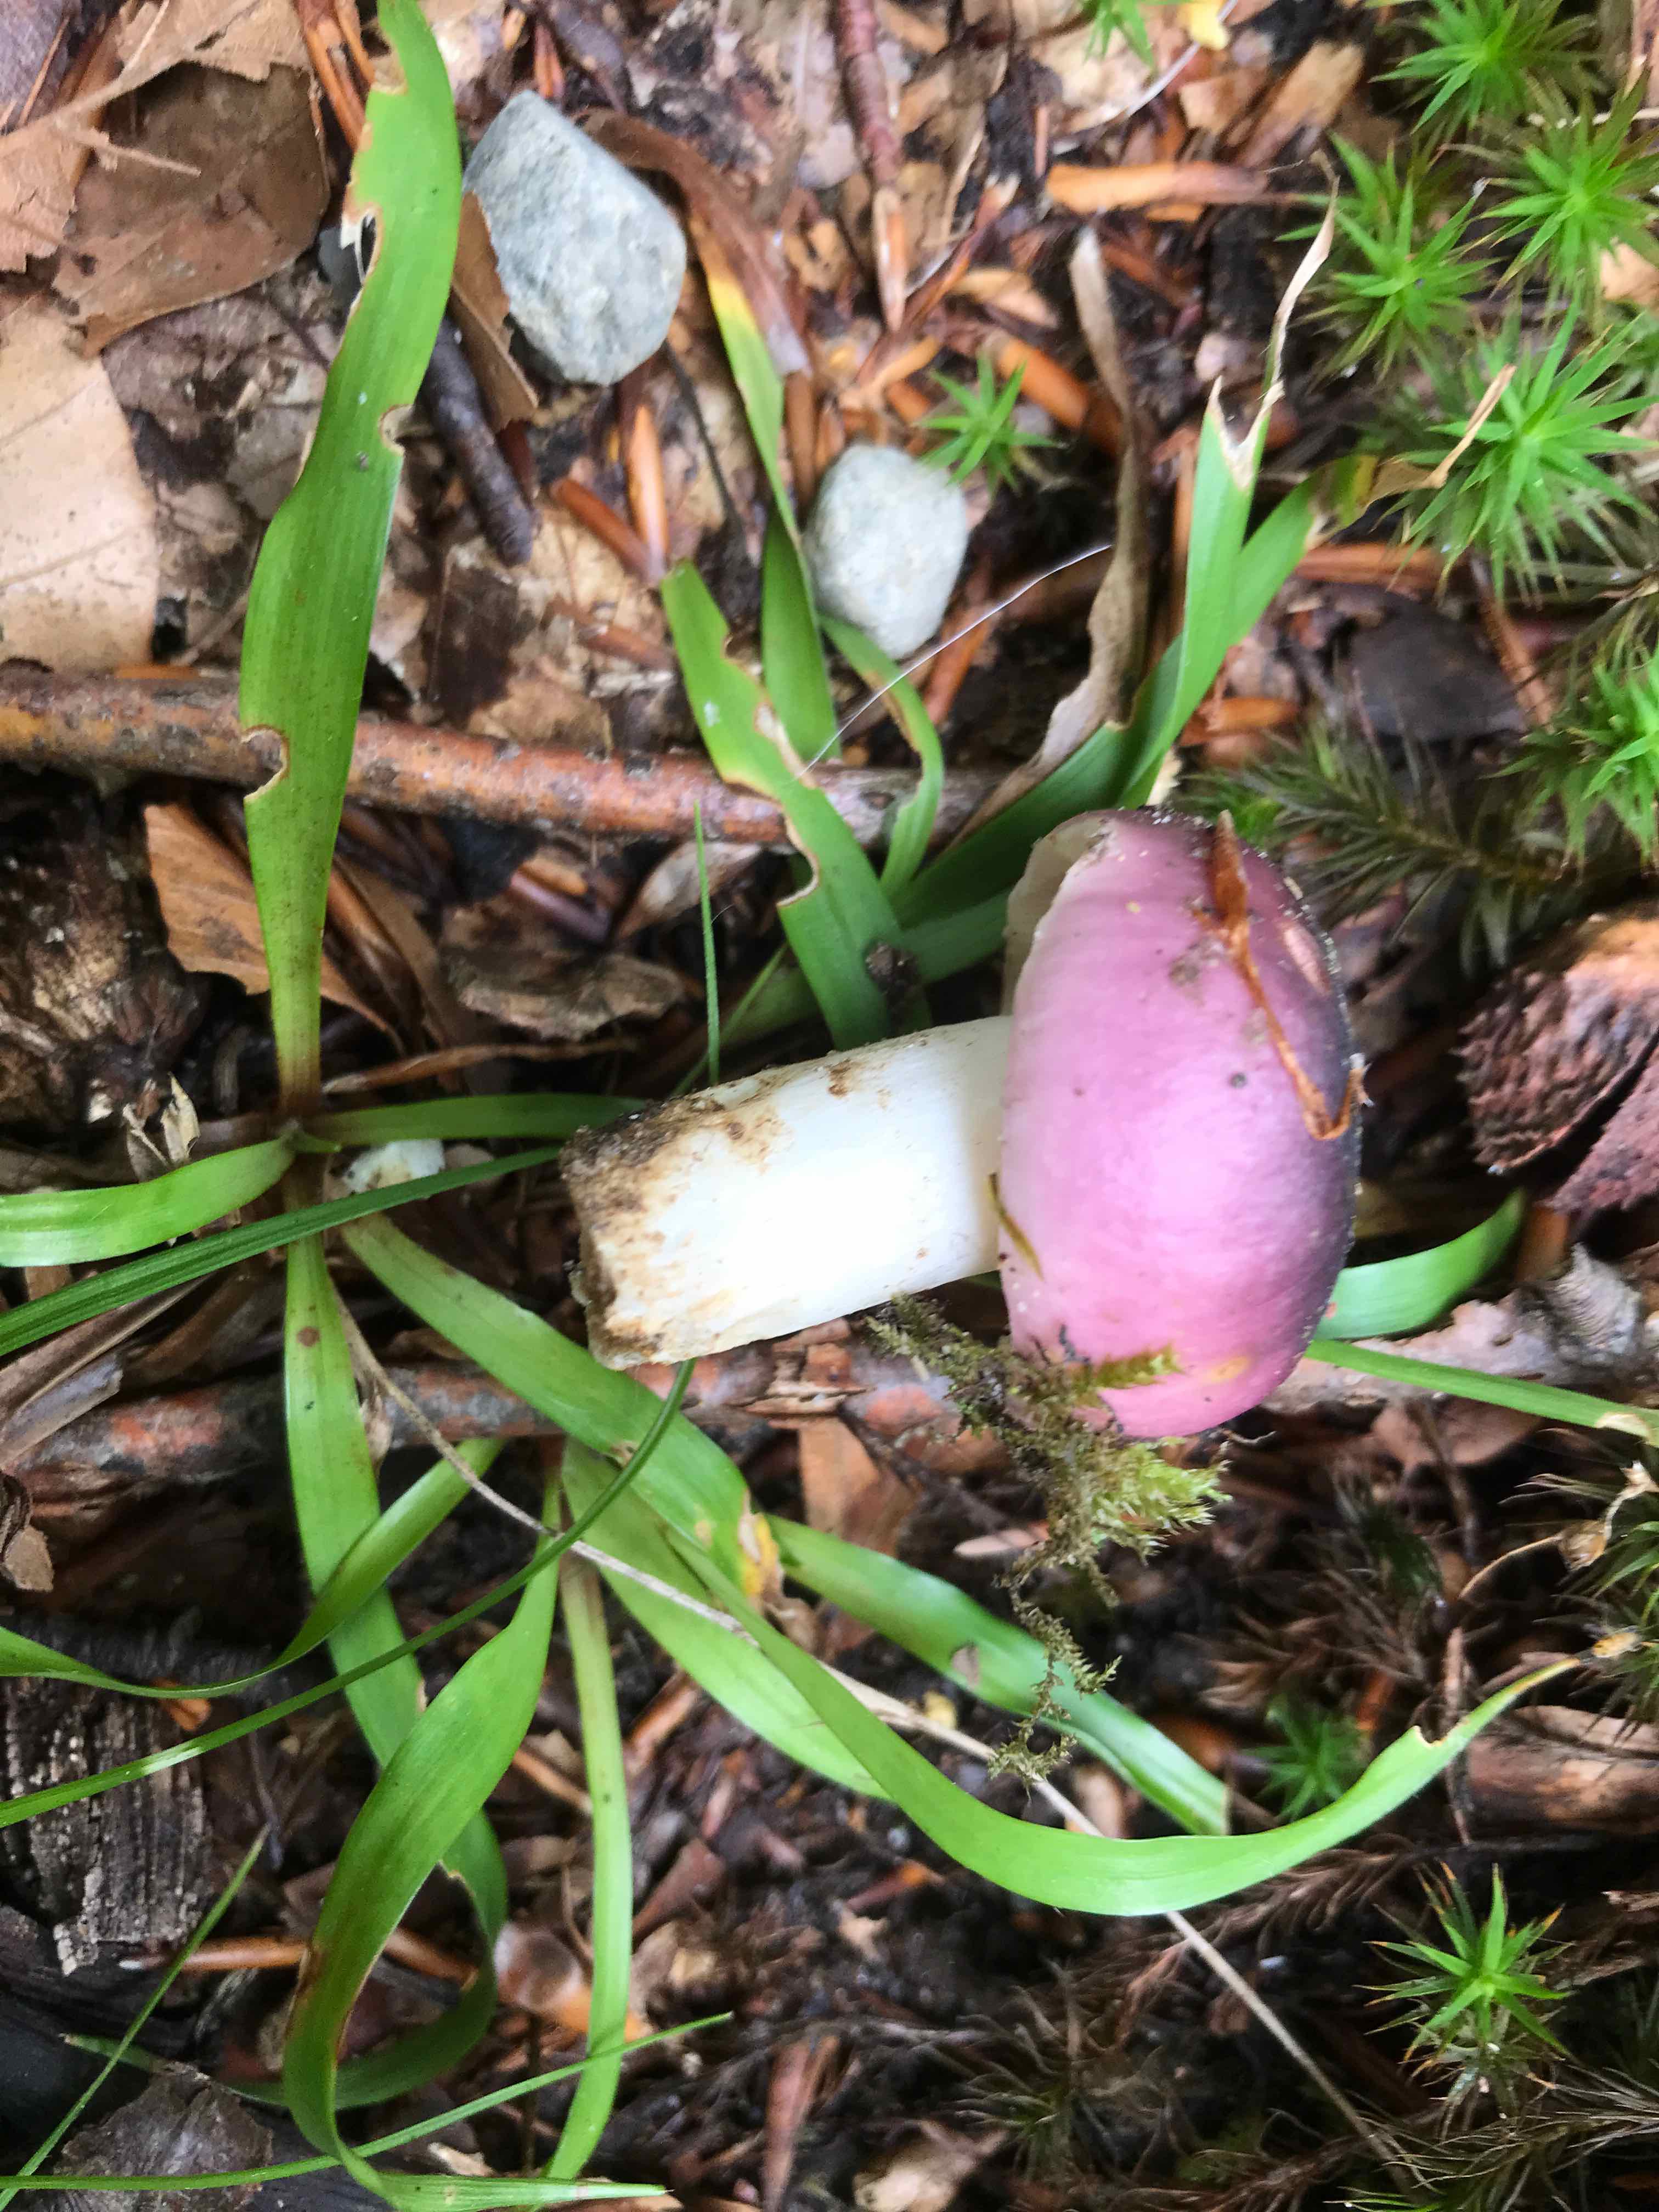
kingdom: Fungi
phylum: Basidiomycota
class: Agaricomycetes
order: Russulales
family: Russulaceae
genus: Russula
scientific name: Russula cyanoxantha
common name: broget skørhat
